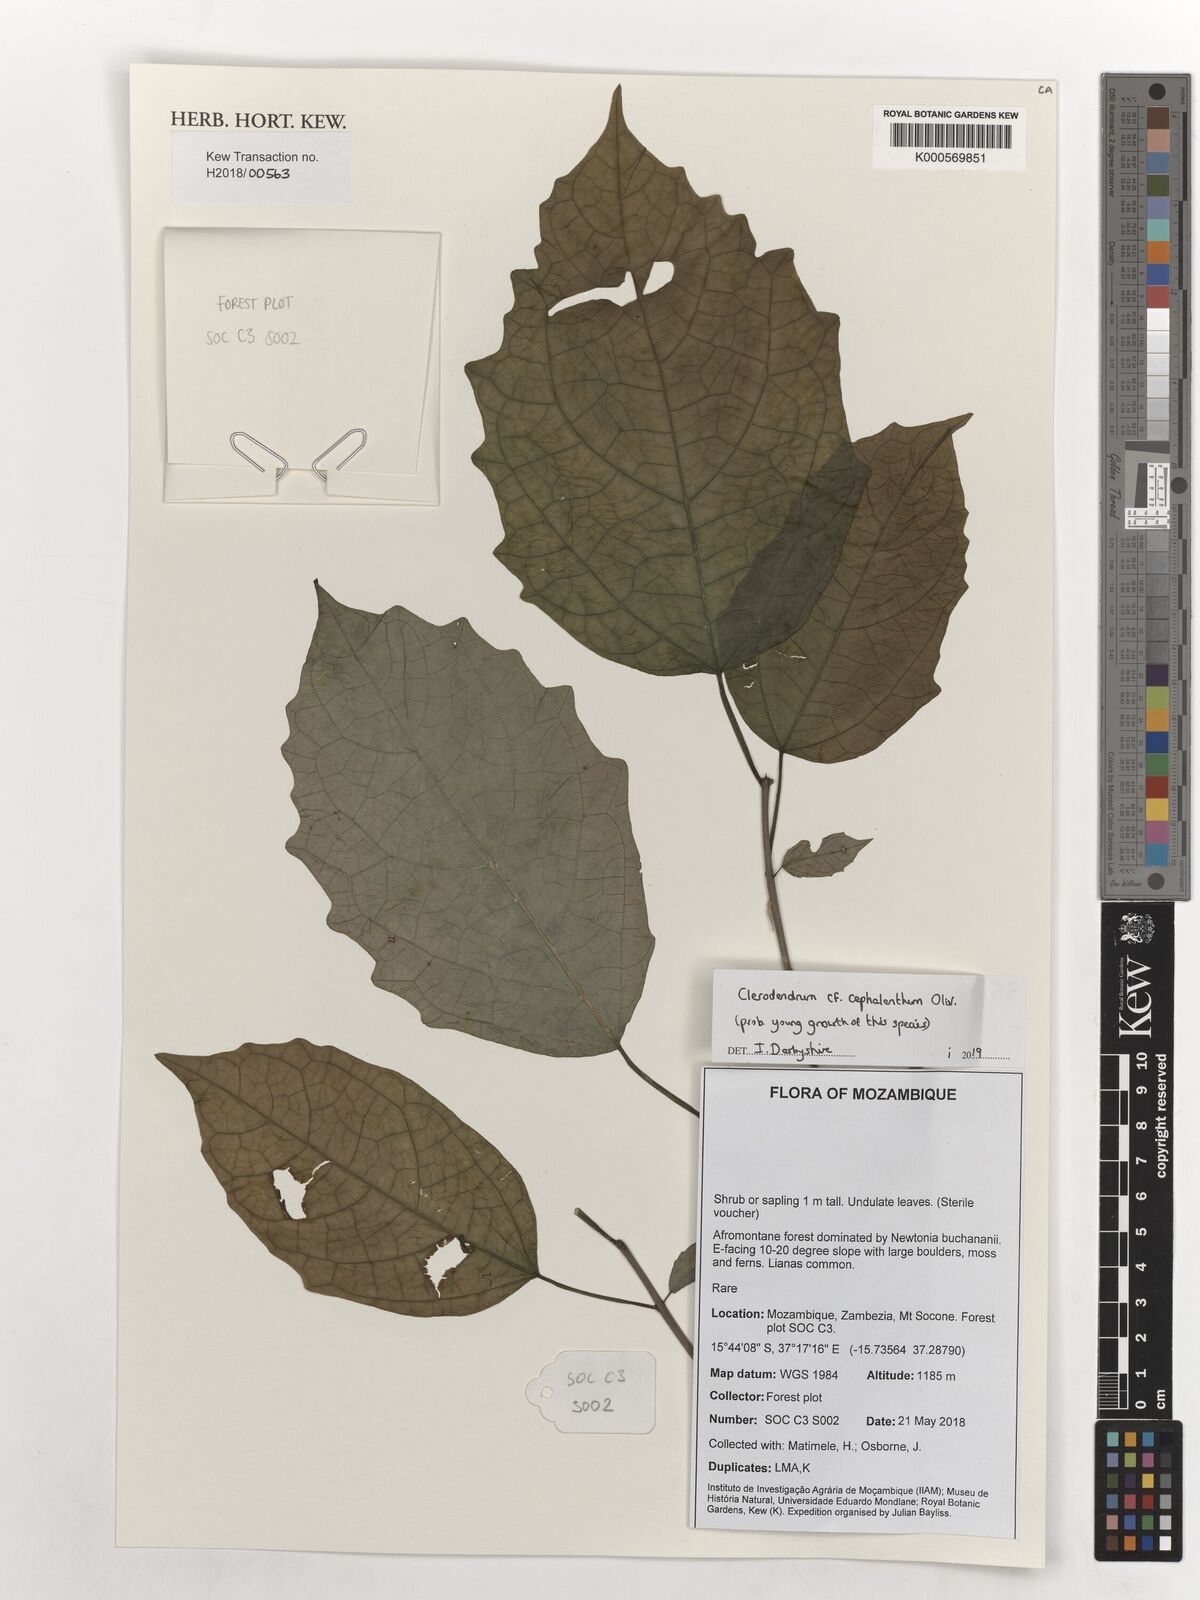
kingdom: Plantae
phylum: Tracheophyta
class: Magnoliopsida
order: Lamiales
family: Lamiaceae
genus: Clerodendrum
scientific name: Clerodendrum cephalanthum
